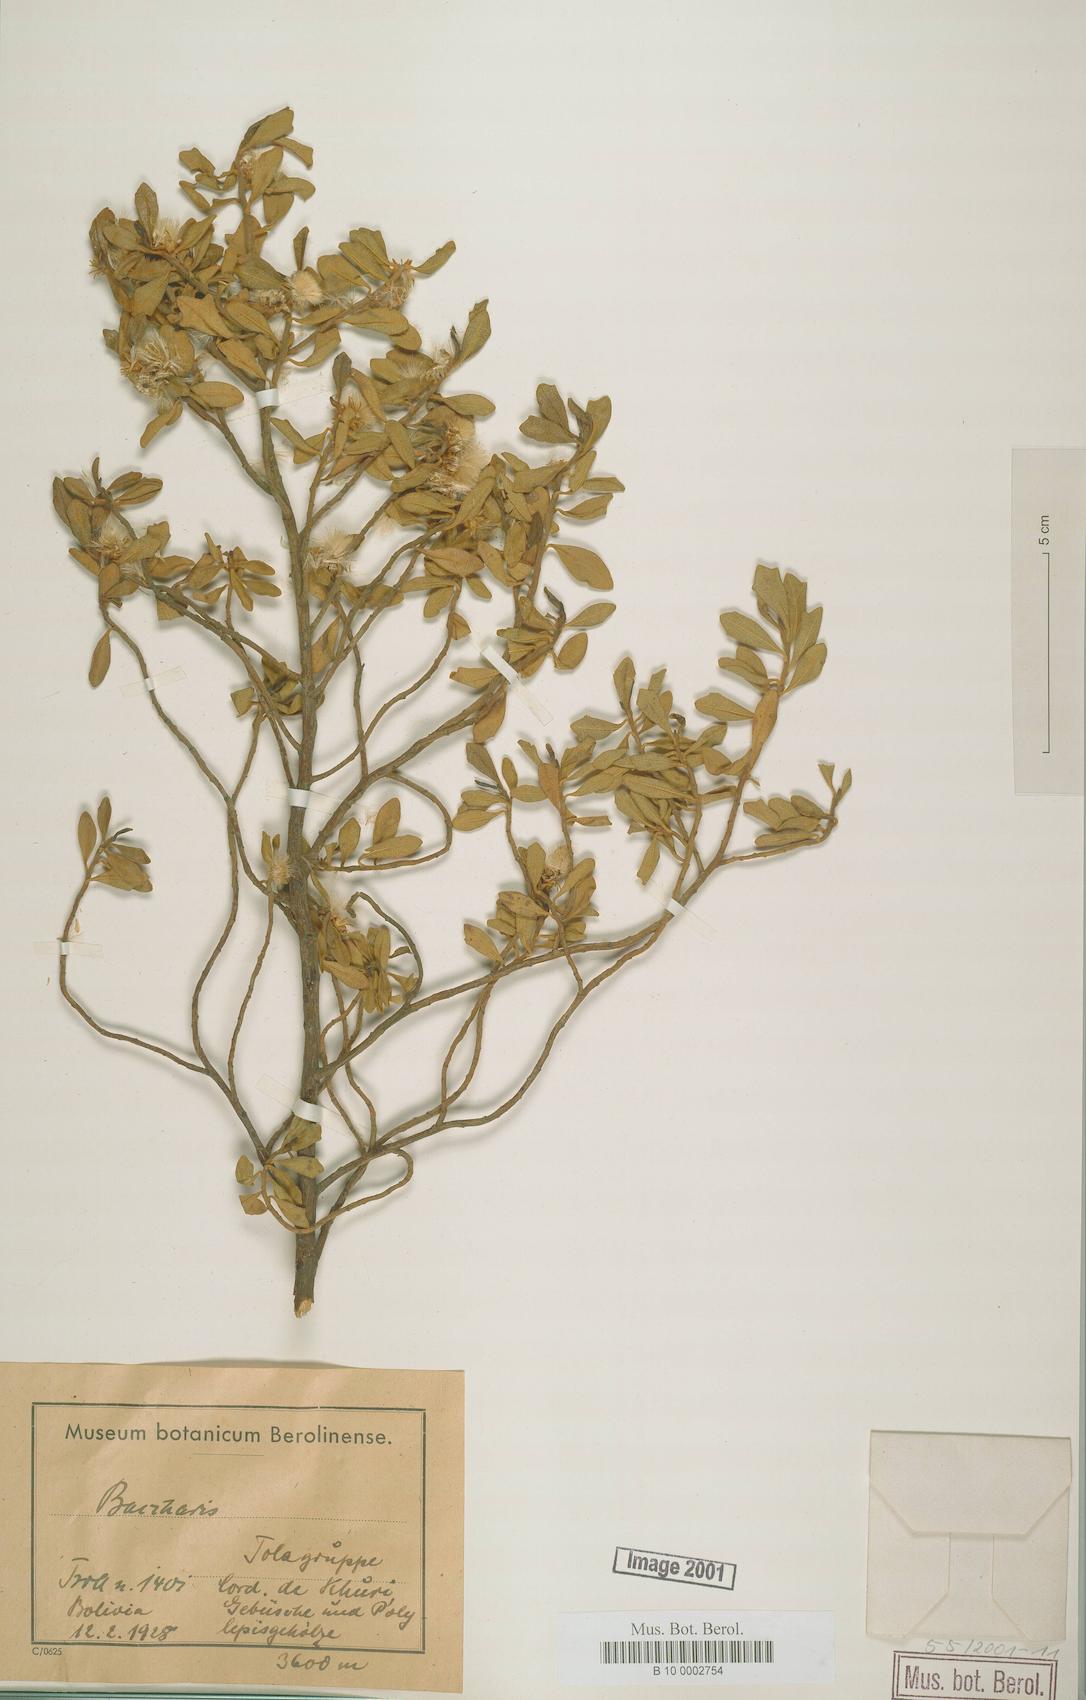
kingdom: Plantae
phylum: Tracheophyta
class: Magnoliopsida
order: Asterales
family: Asteraceae
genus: Baccharis
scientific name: Baccharis
